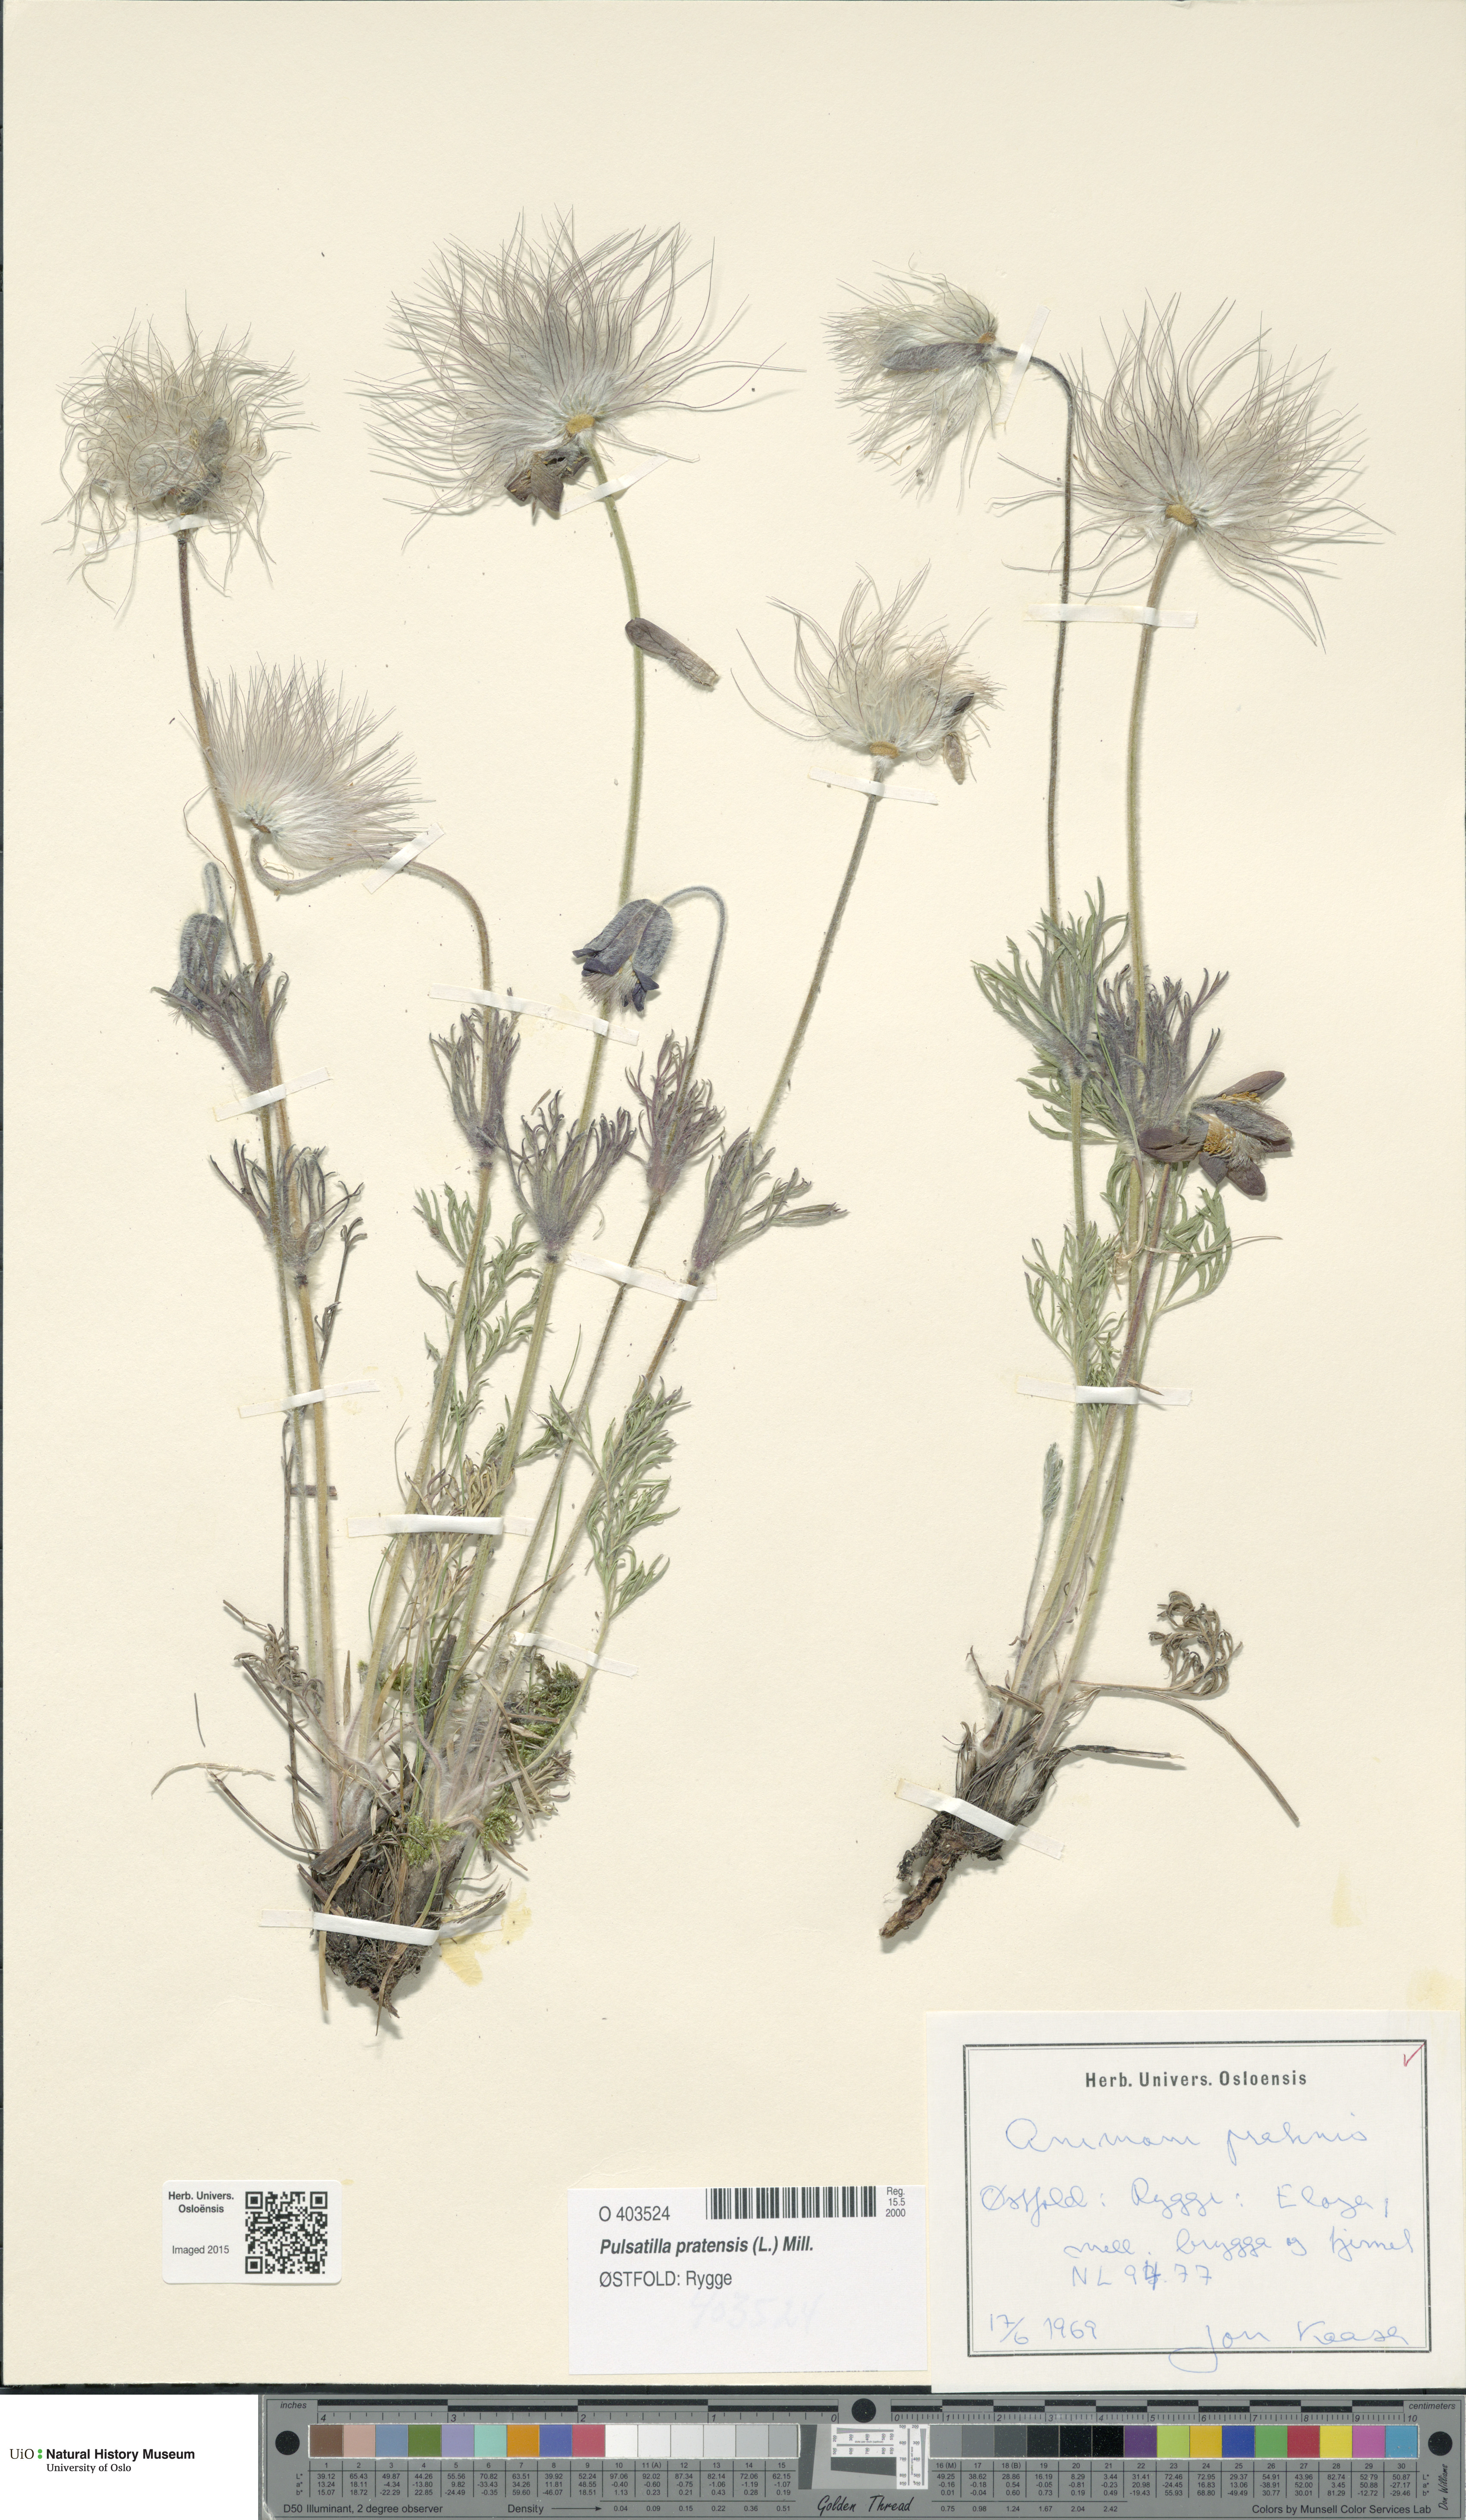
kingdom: Plantae
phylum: Tracheophyta
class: Magnoliopsida
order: Ranunculales
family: Ranunculaceae
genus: Pulsatilla
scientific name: Pulsatilla pratensis
